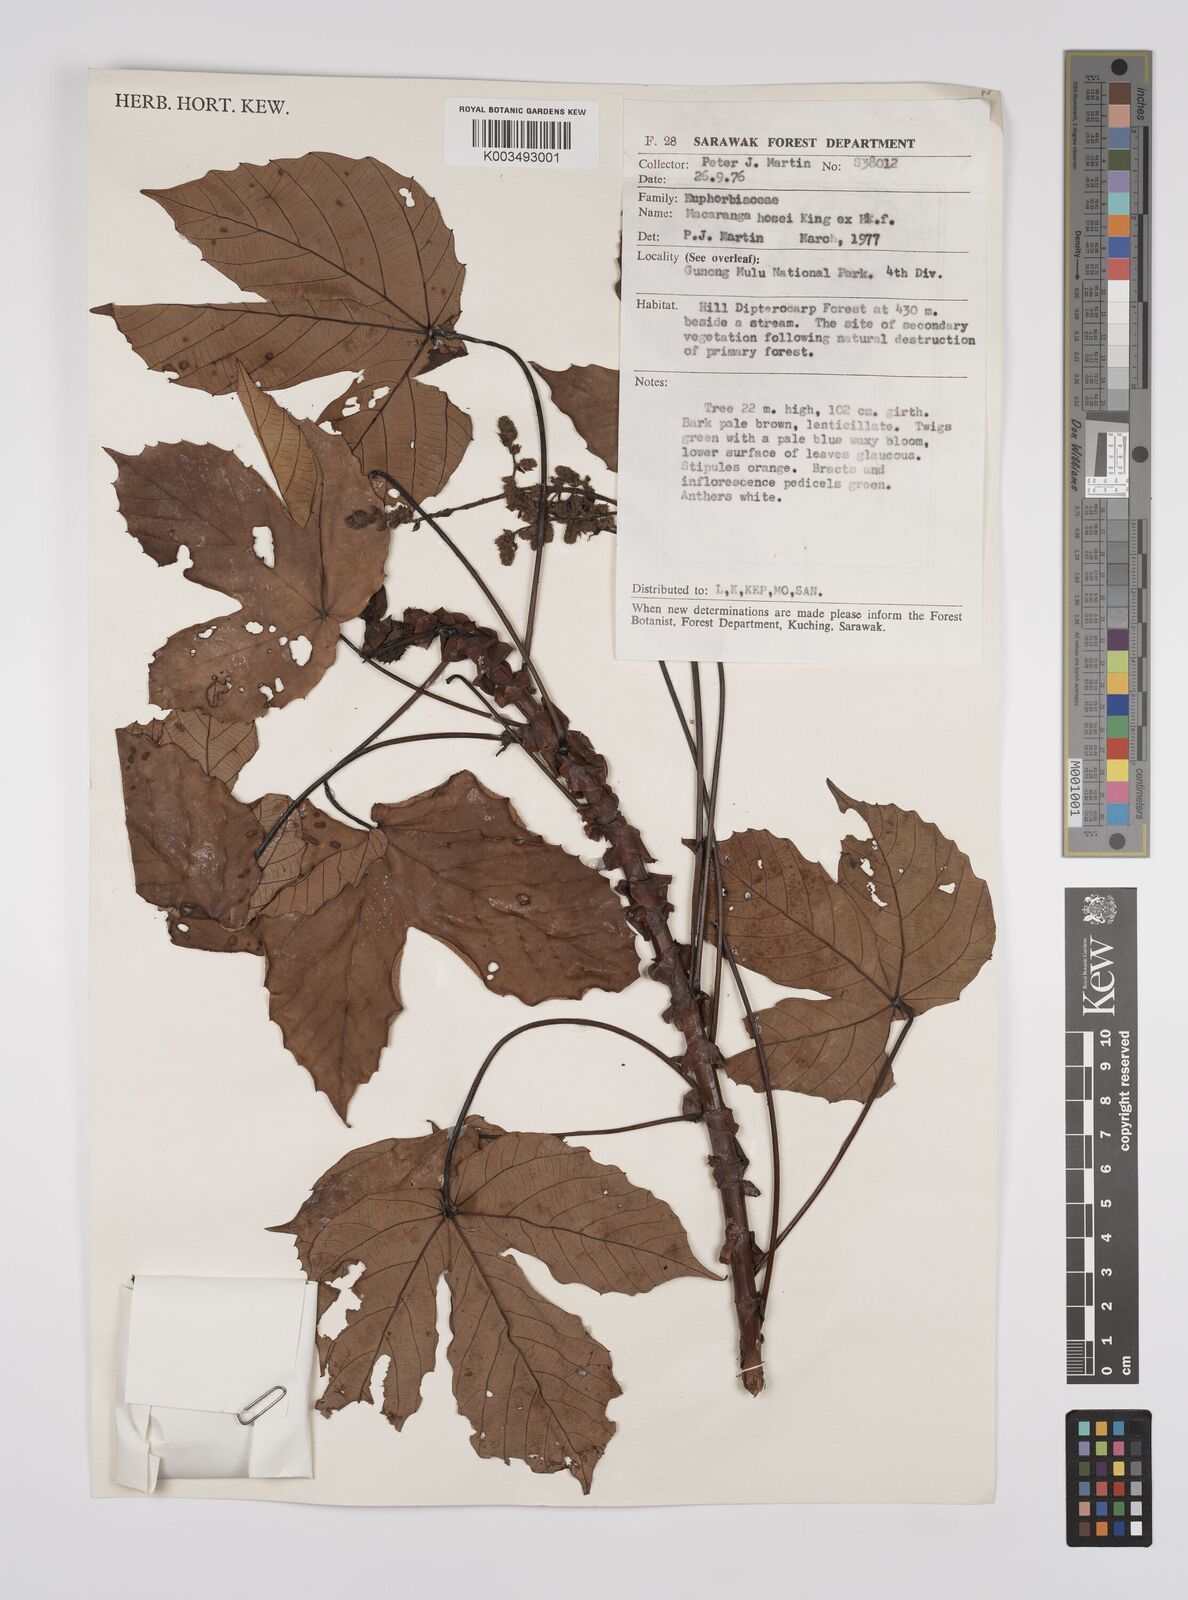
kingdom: Plantae
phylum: Tracheophyta
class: Magnoliopsida
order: Malpighiales
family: Euphorbiaceae
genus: Macaranga
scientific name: Macaranga hosei
